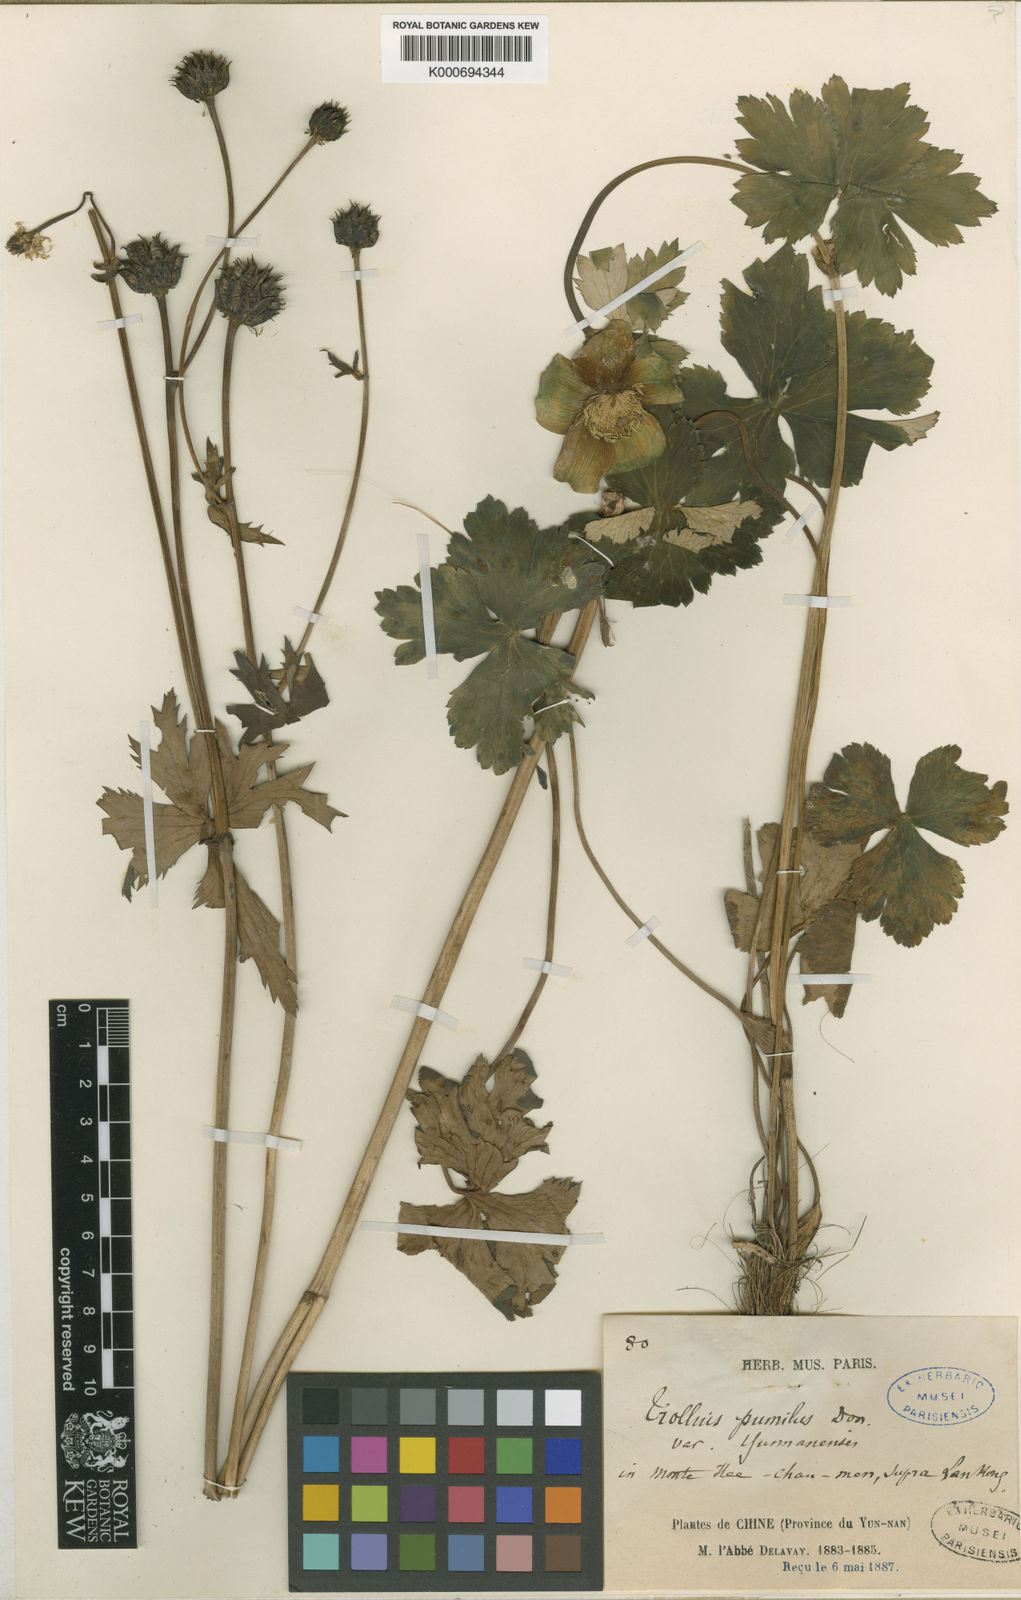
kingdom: Plantae
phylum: Tracheophyta
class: Magnoliopsida
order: Ranunculales
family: Ranunculaceae
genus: Trollius
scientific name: Trollius yunnanensis
